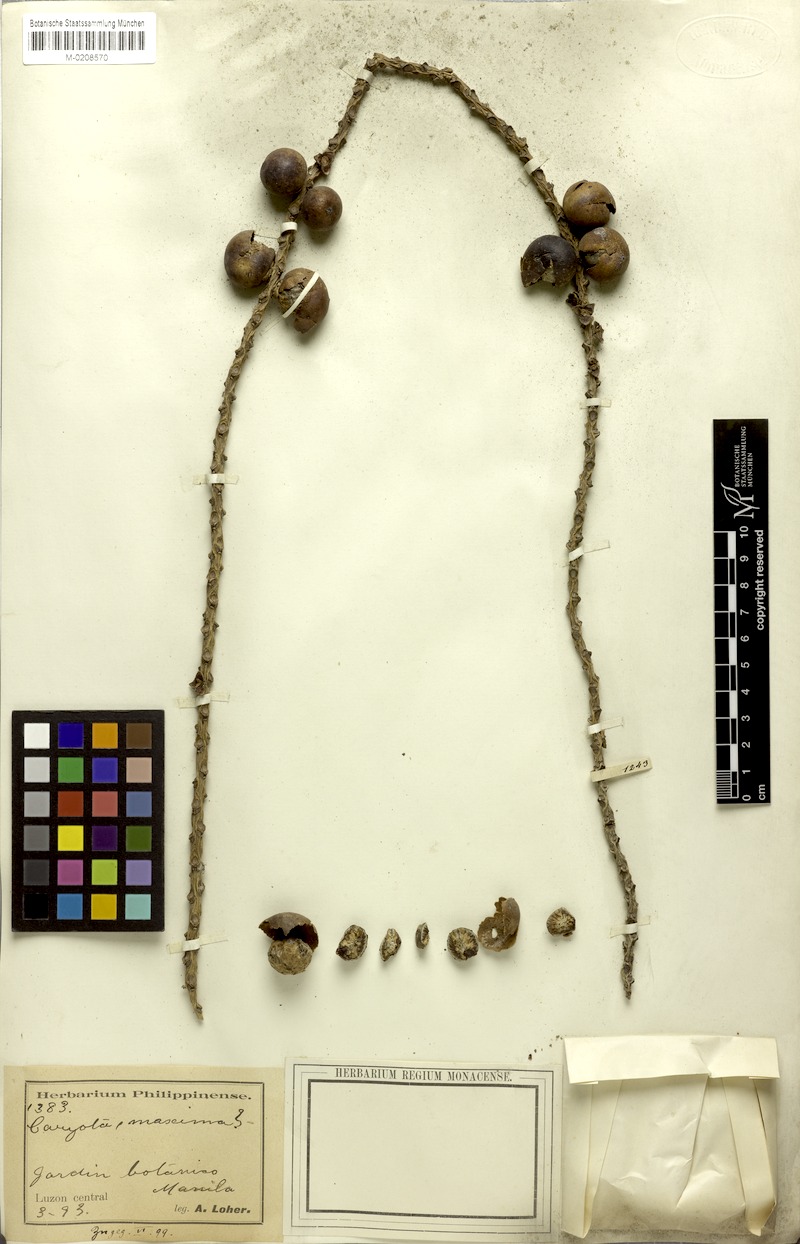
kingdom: Plantae
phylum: Tracheophyta
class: Liliopsida
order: Arecales
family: Arecaceae
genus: Caryota
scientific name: Caryota maxima
